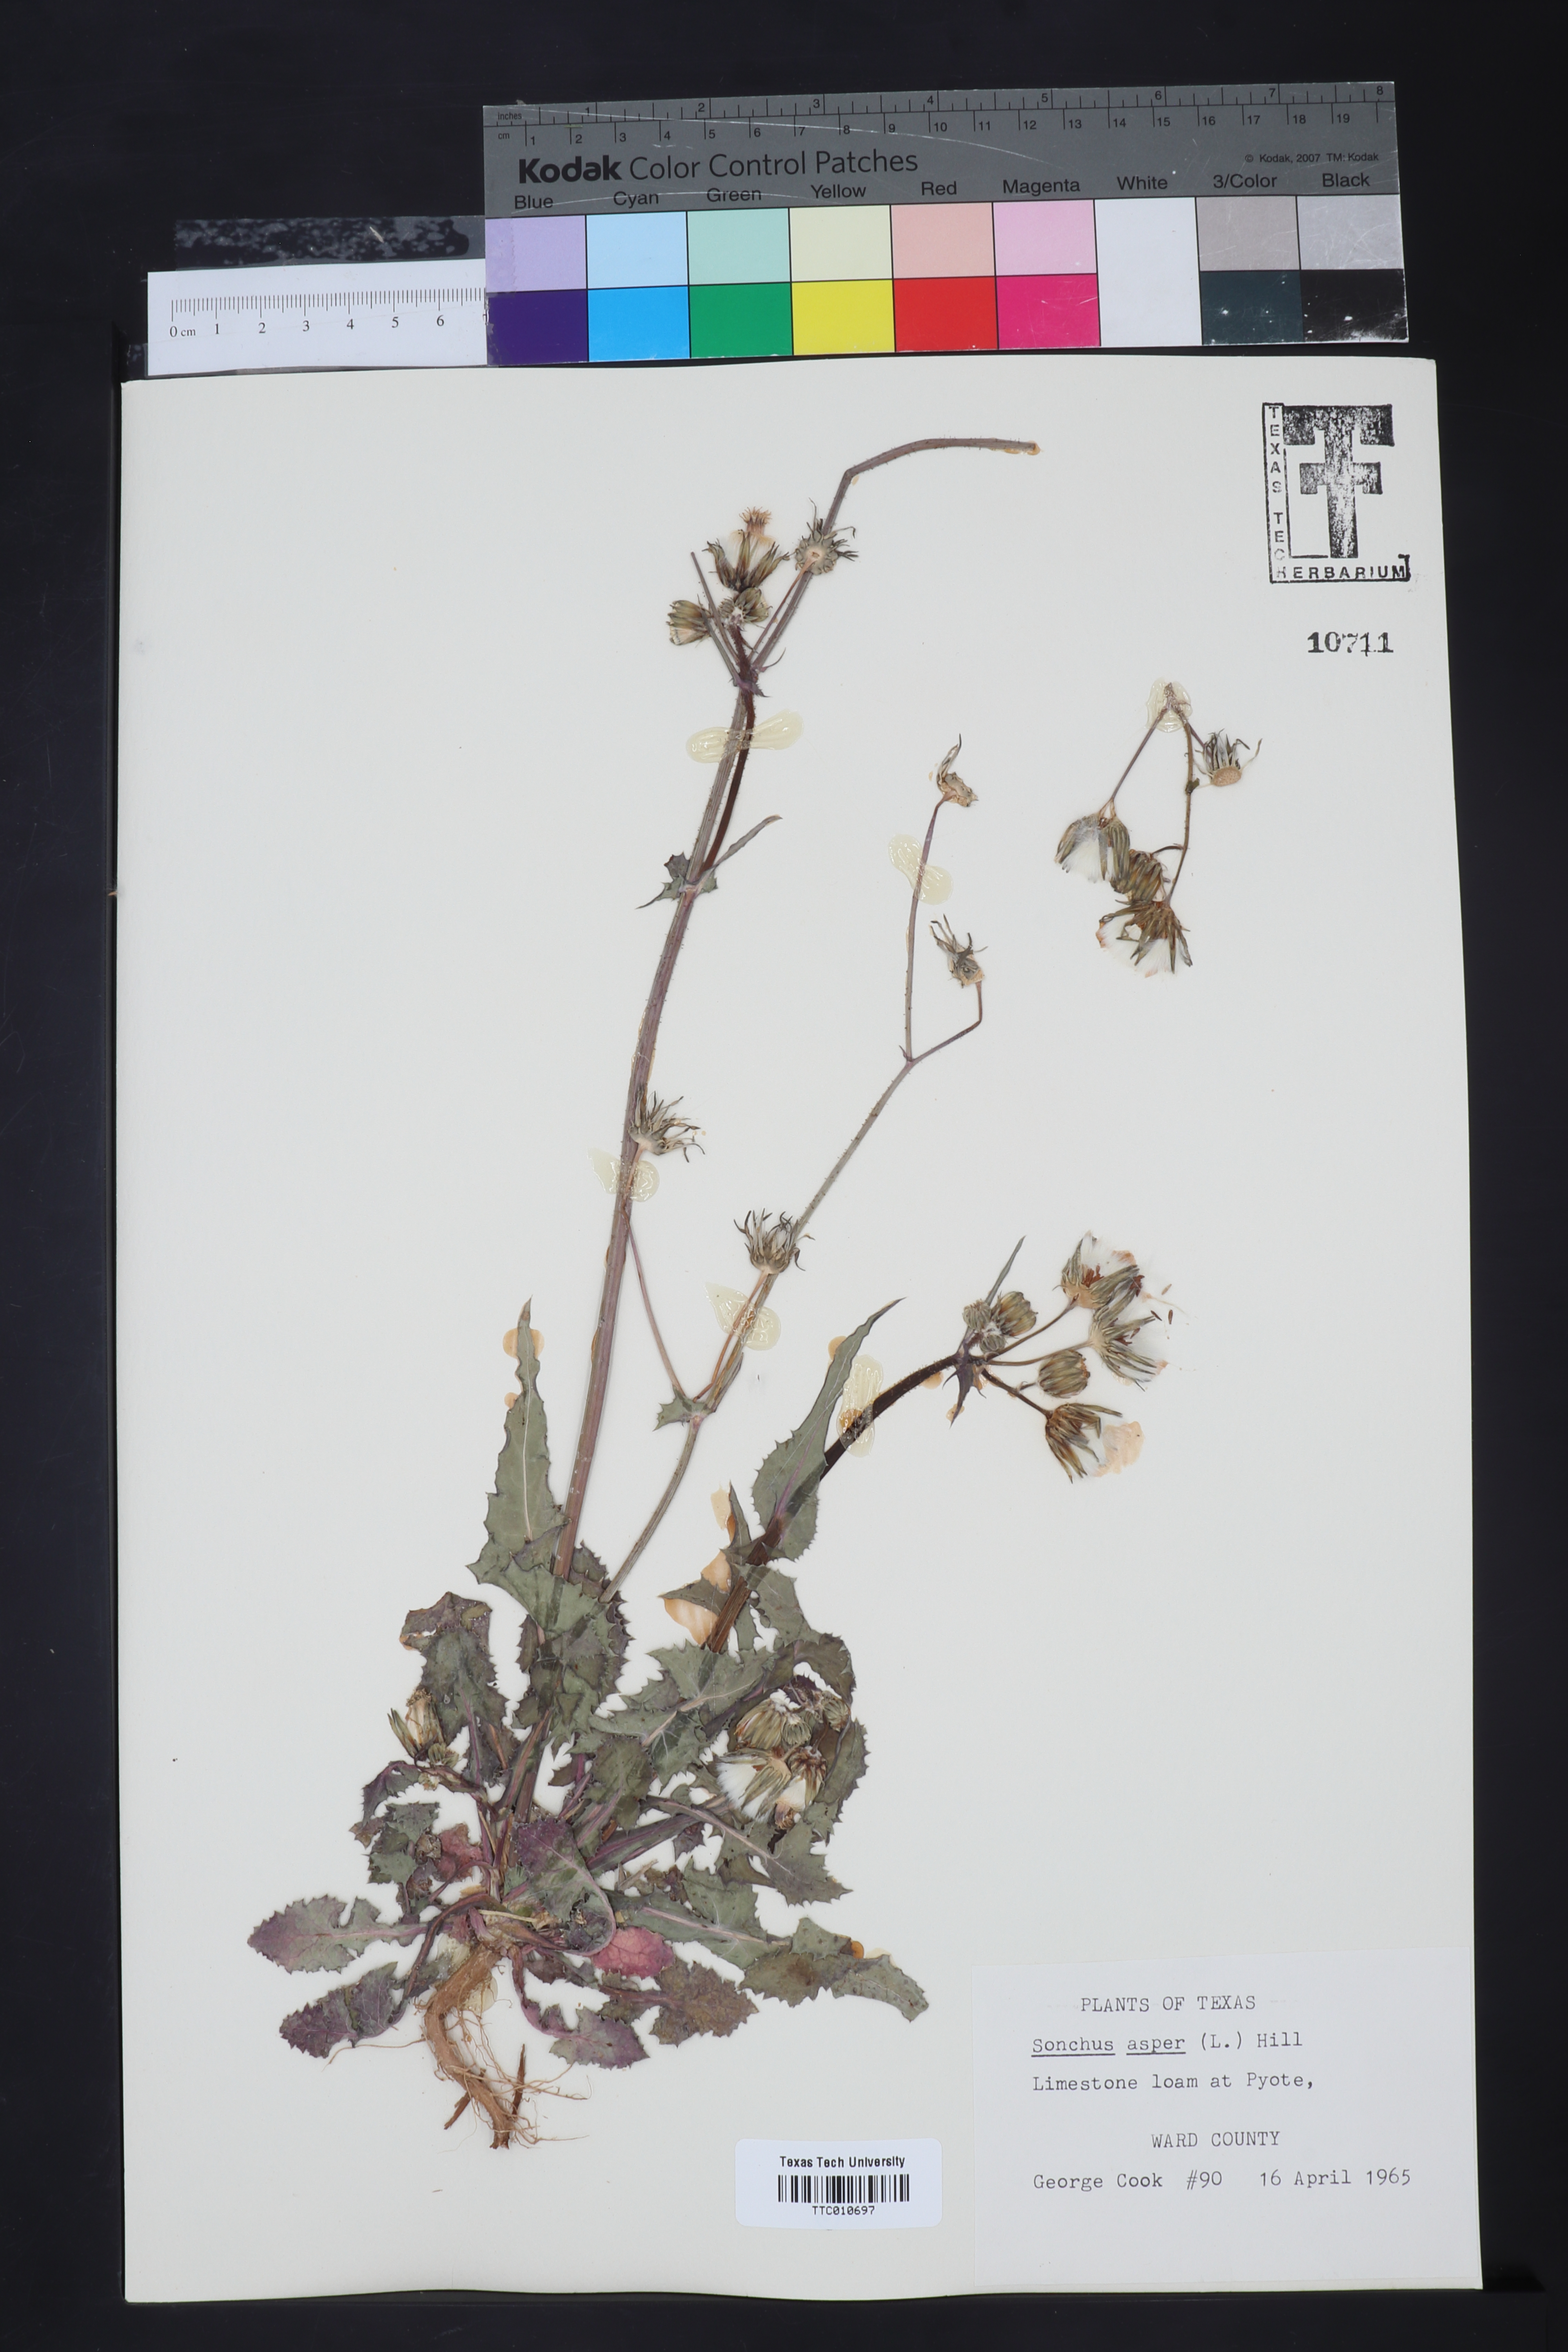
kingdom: Plantae
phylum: Tracheophyta
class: Magnoliopsida
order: Asterales
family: Asteraceae
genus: Sonchus
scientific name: Sonchus asper
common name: Prickly sow-thistle
